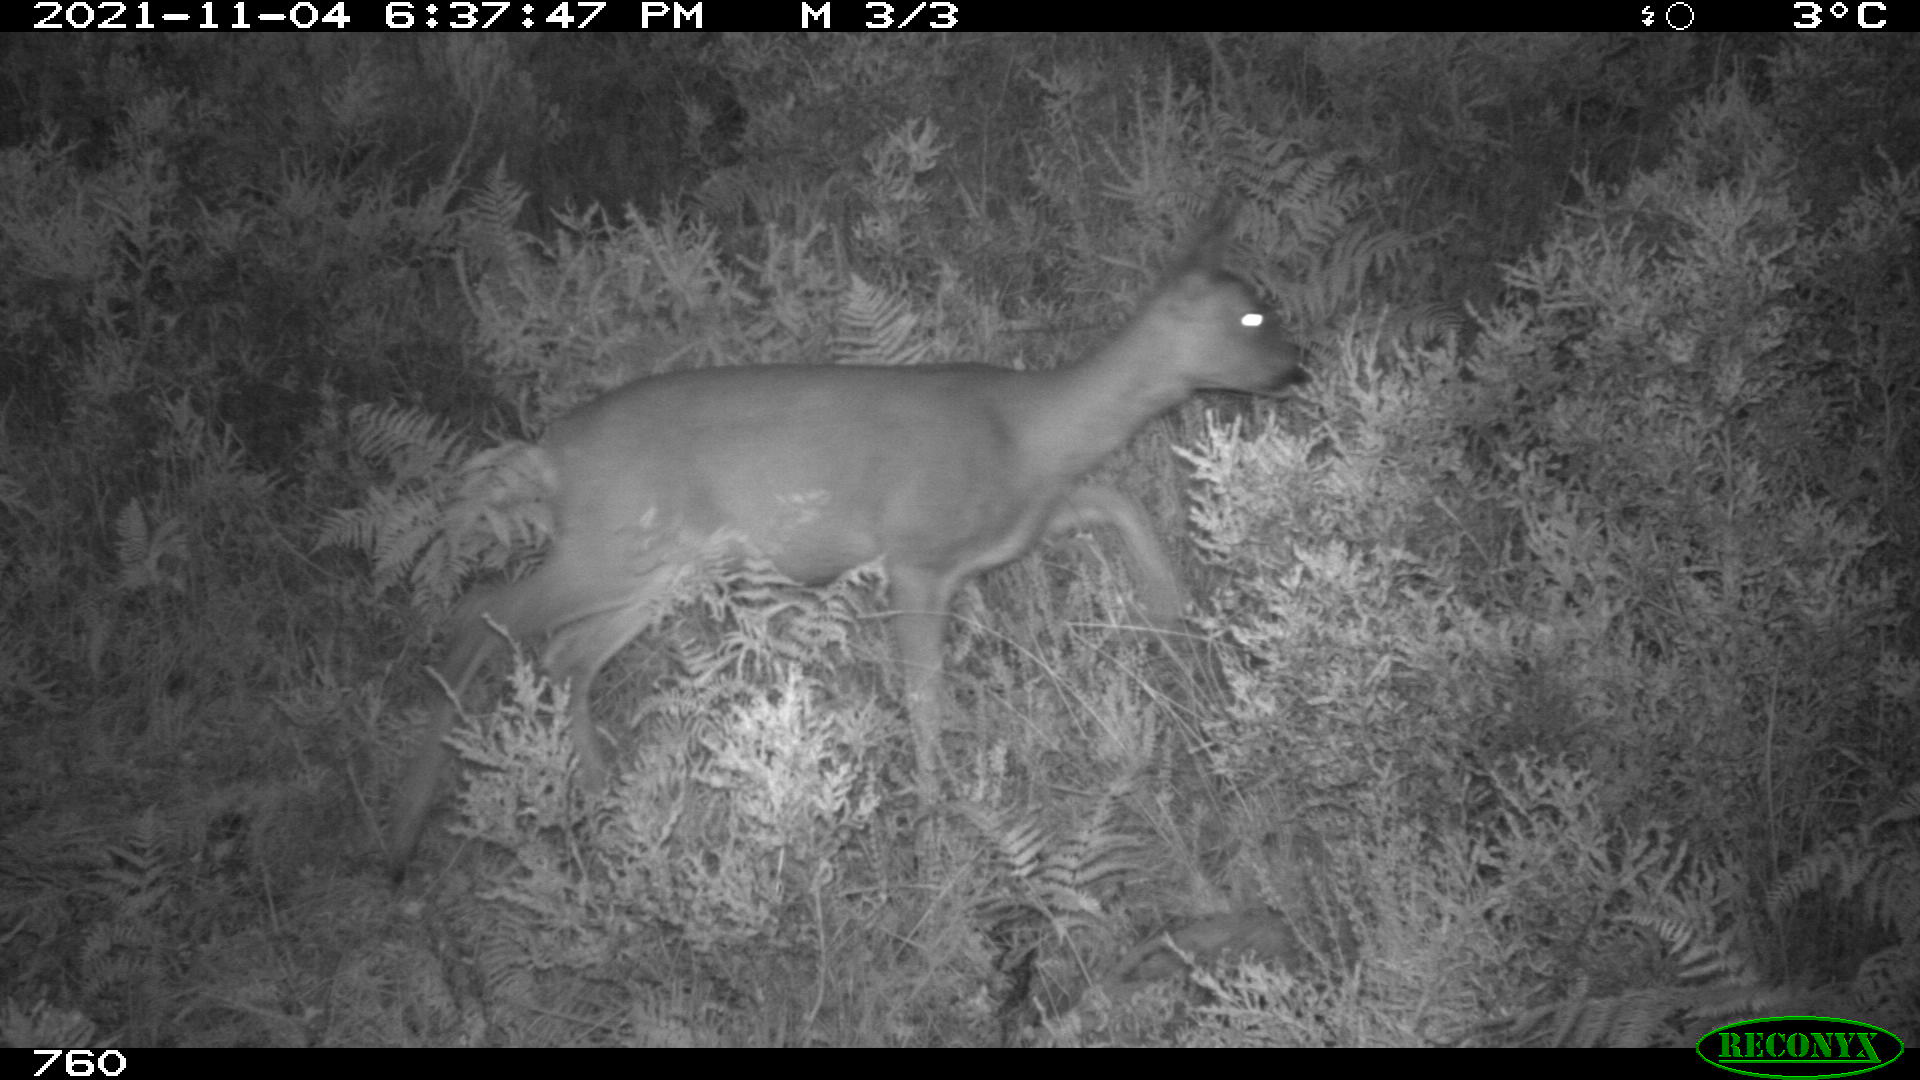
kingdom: Animalia
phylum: Chordata
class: Mammalia
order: Artiodactyla
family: Cervidae
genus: Capreolus
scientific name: Capreolus capreolus
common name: Western roe deer
